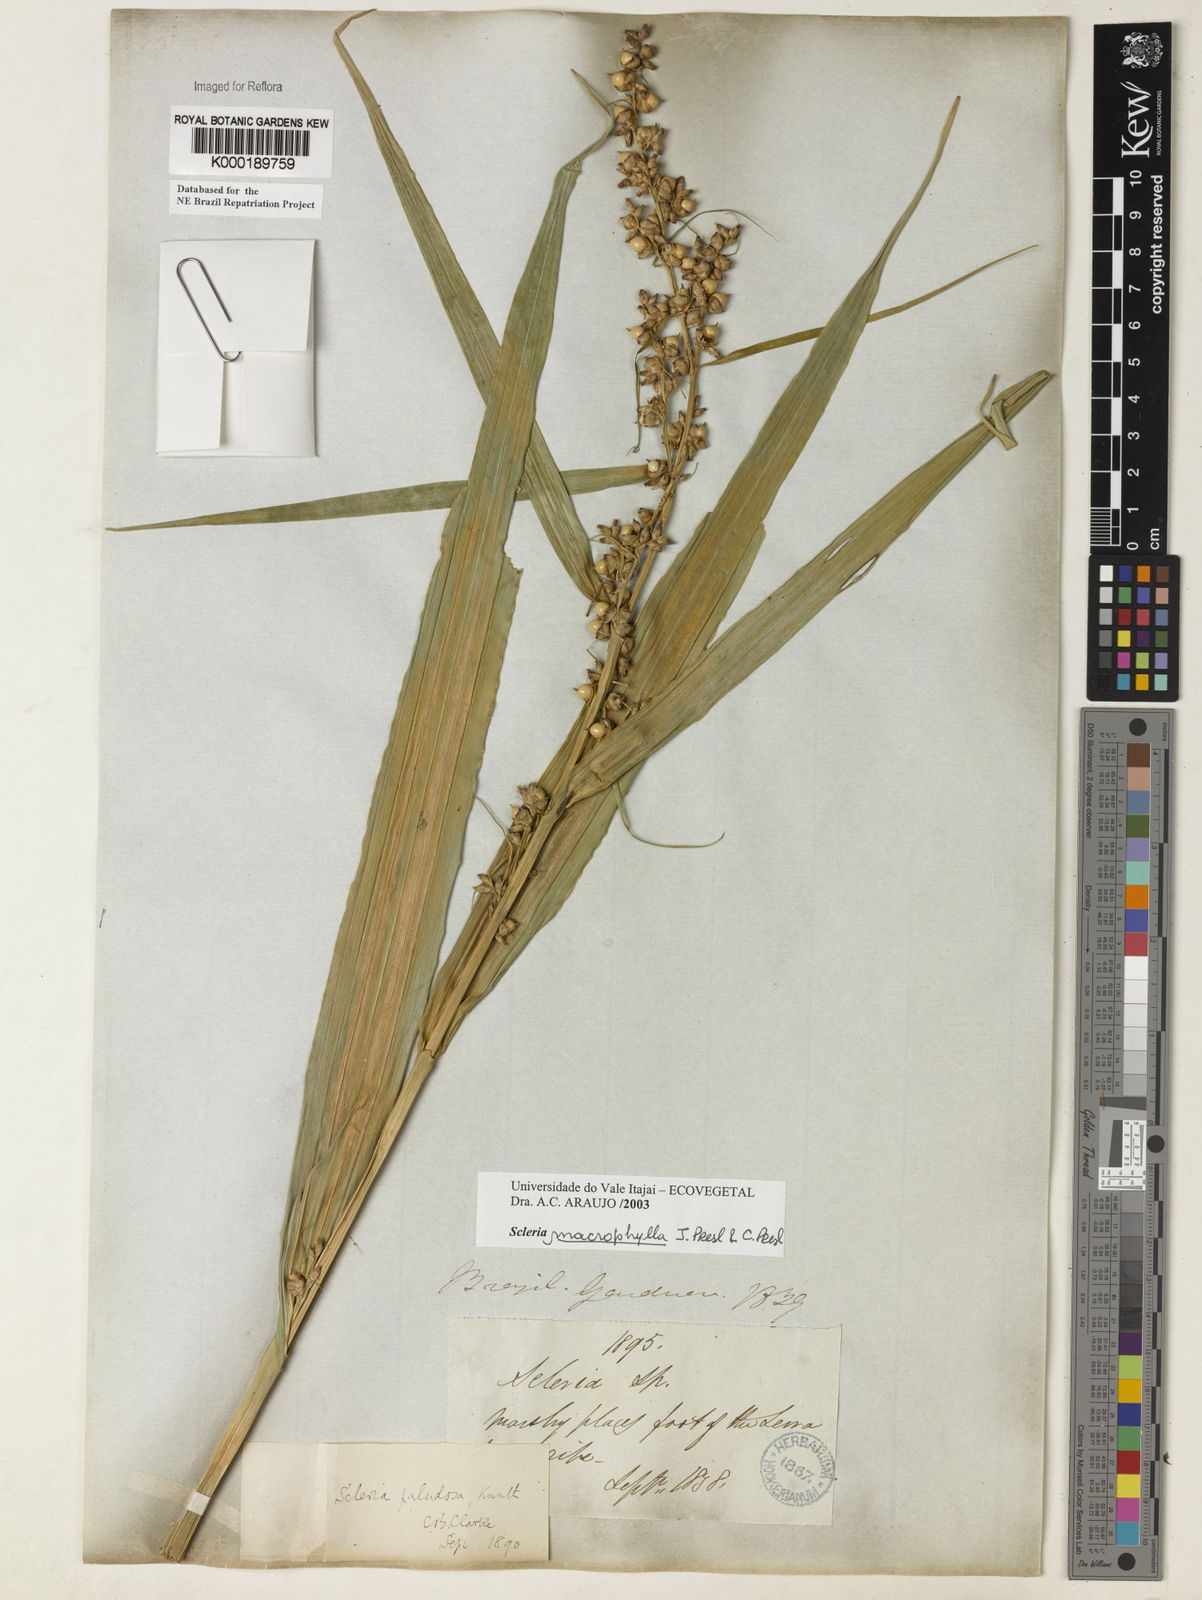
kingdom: Plantae
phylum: Tracheophyta
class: Liliopsida
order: Poales
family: Cyperaceae
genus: Scleria
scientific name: Scleria macrophylla
